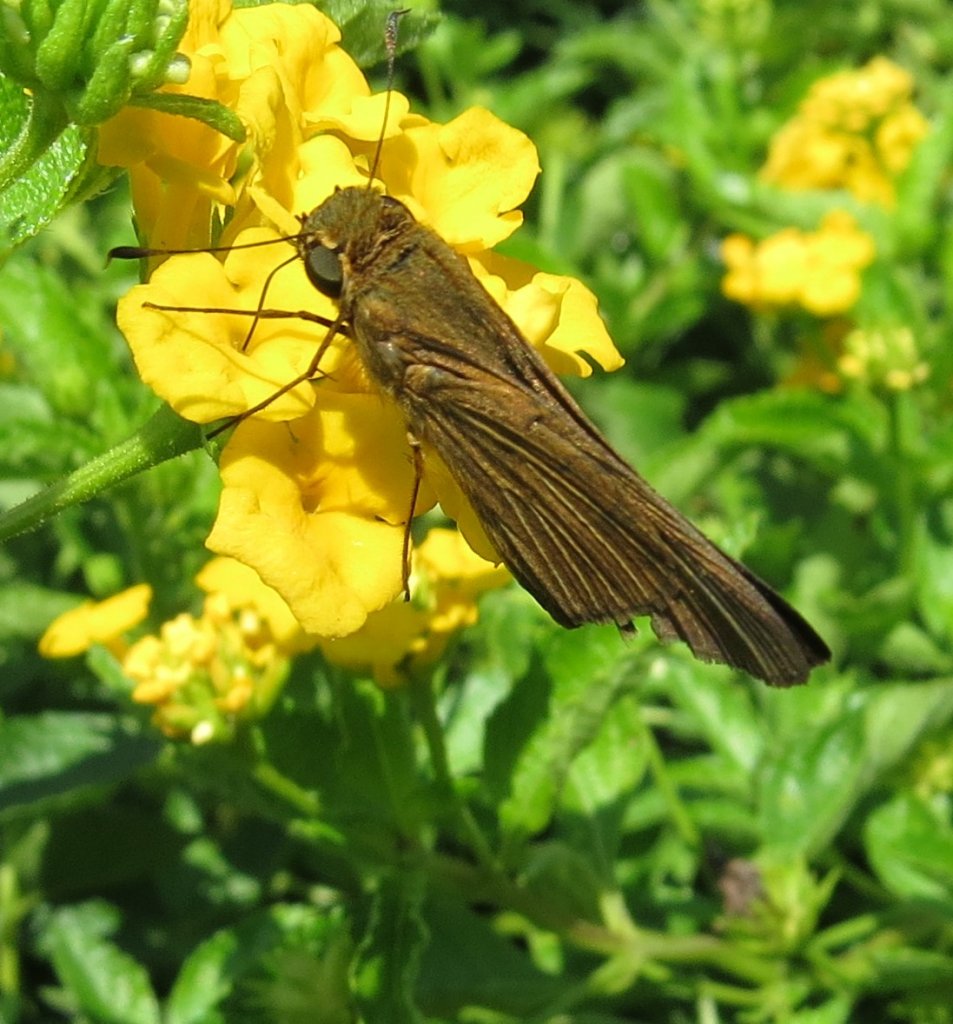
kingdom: Animalia
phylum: Arthropoda
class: Insecta
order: Lepidoptera
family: Hesperiidae
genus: Panoquina
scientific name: Panoquina ocola
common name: Ocola Skipper
